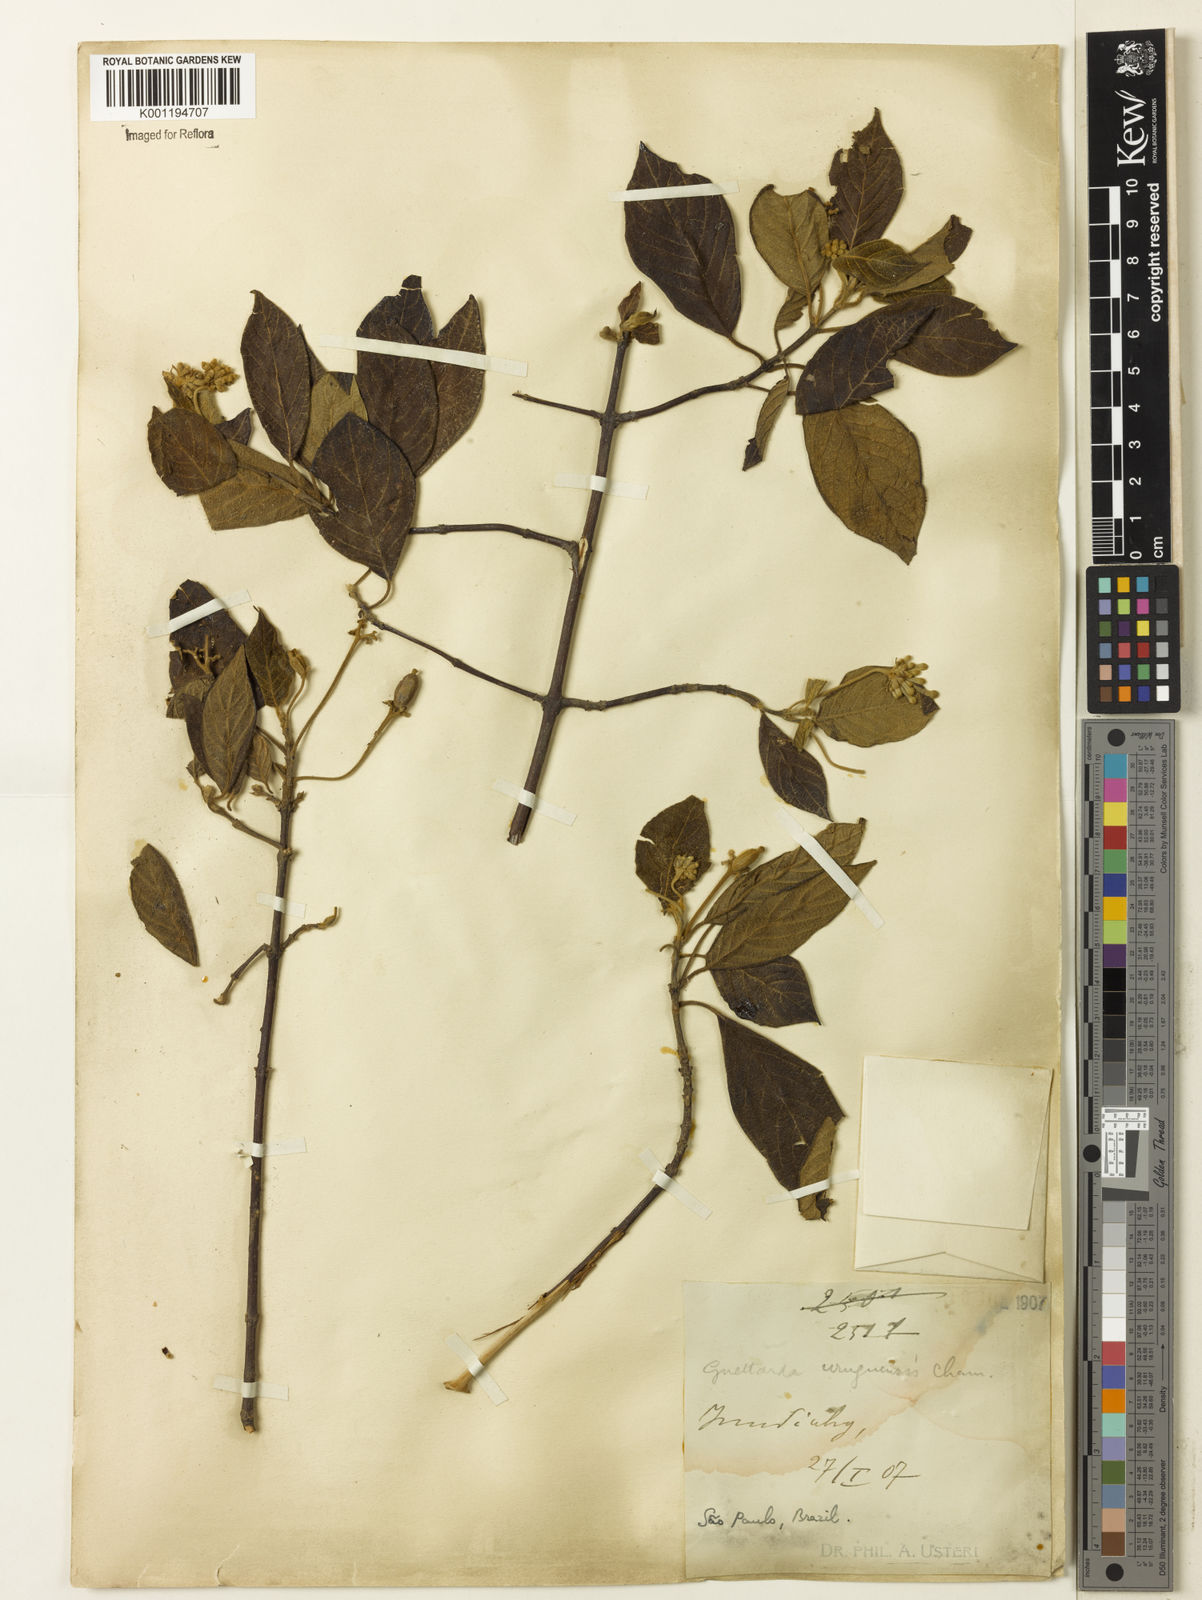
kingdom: Plantae
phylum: Tracheophyta
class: Magnoliopsida
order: Gentianales
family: Rubiaceae
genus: Guettarda
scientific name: Guettarda uruguensis
